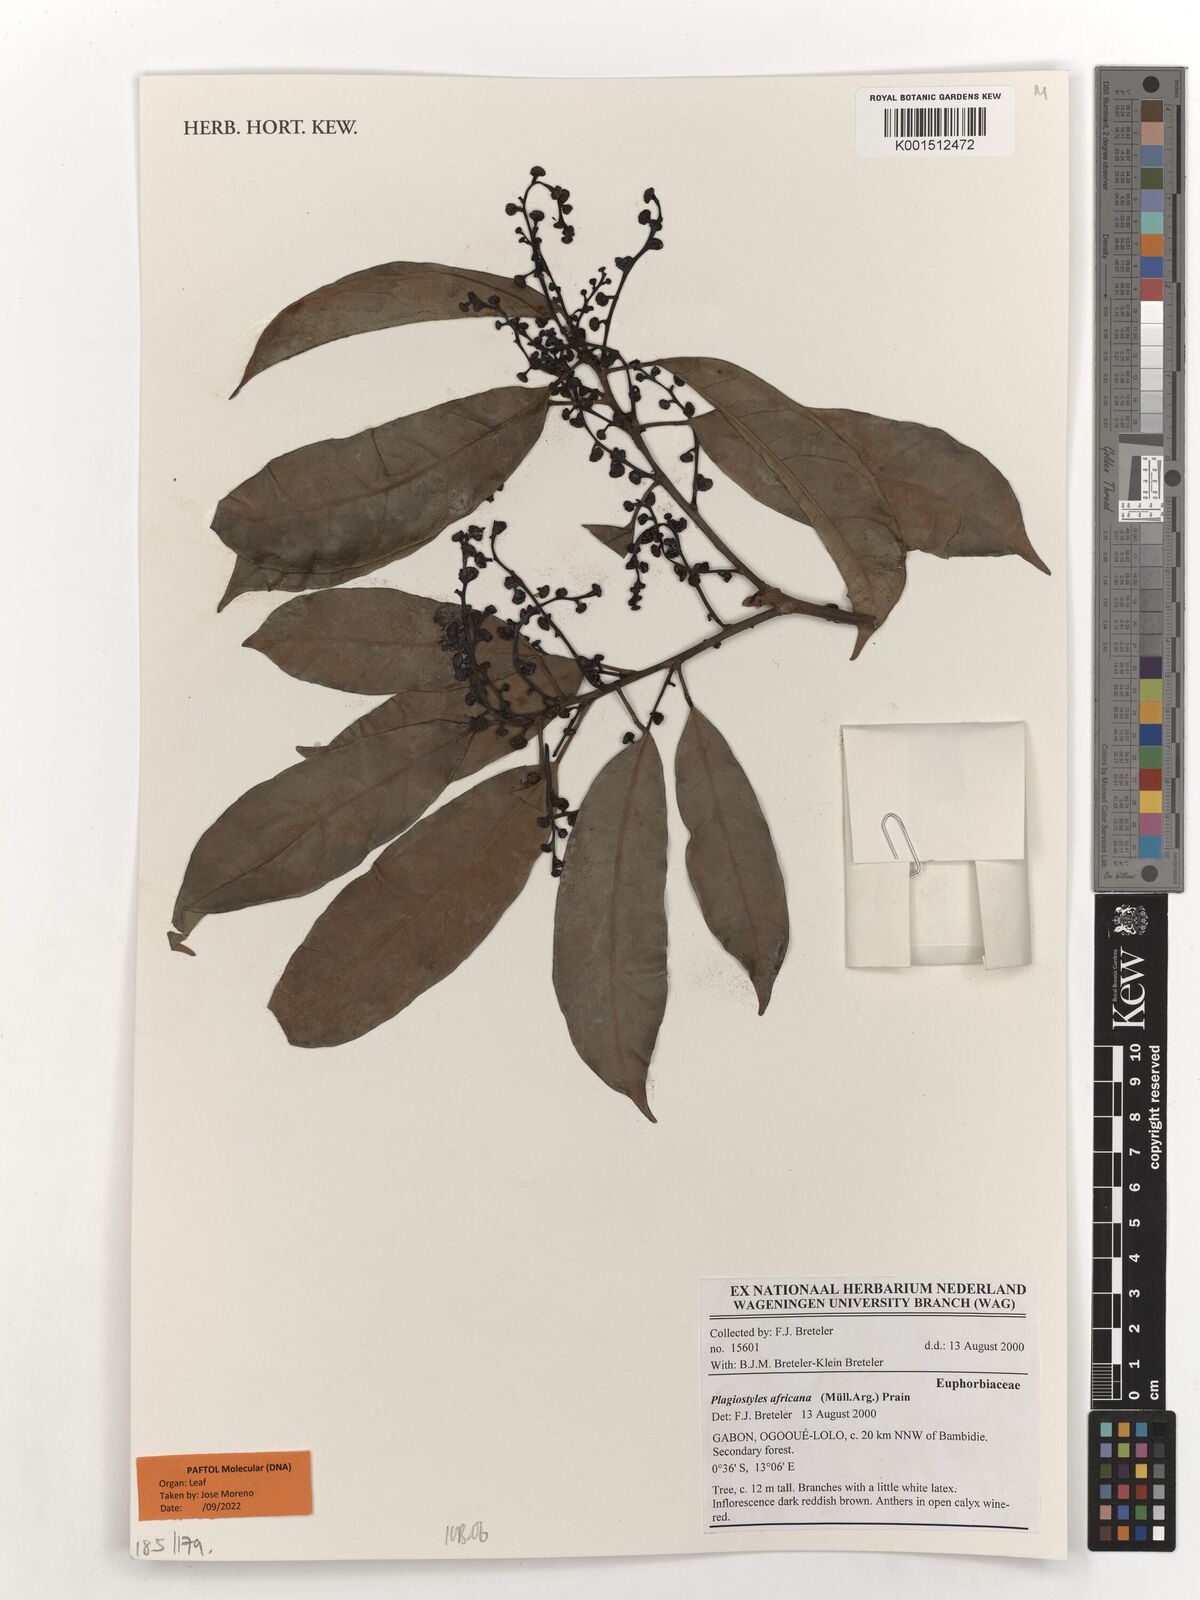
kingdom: Plantae
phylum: Tracheophyta
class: Magnoliopsida
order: Malpighiales
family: Euphorbiaceae
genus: Plagiostyles
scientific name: Plagiostyles africana
